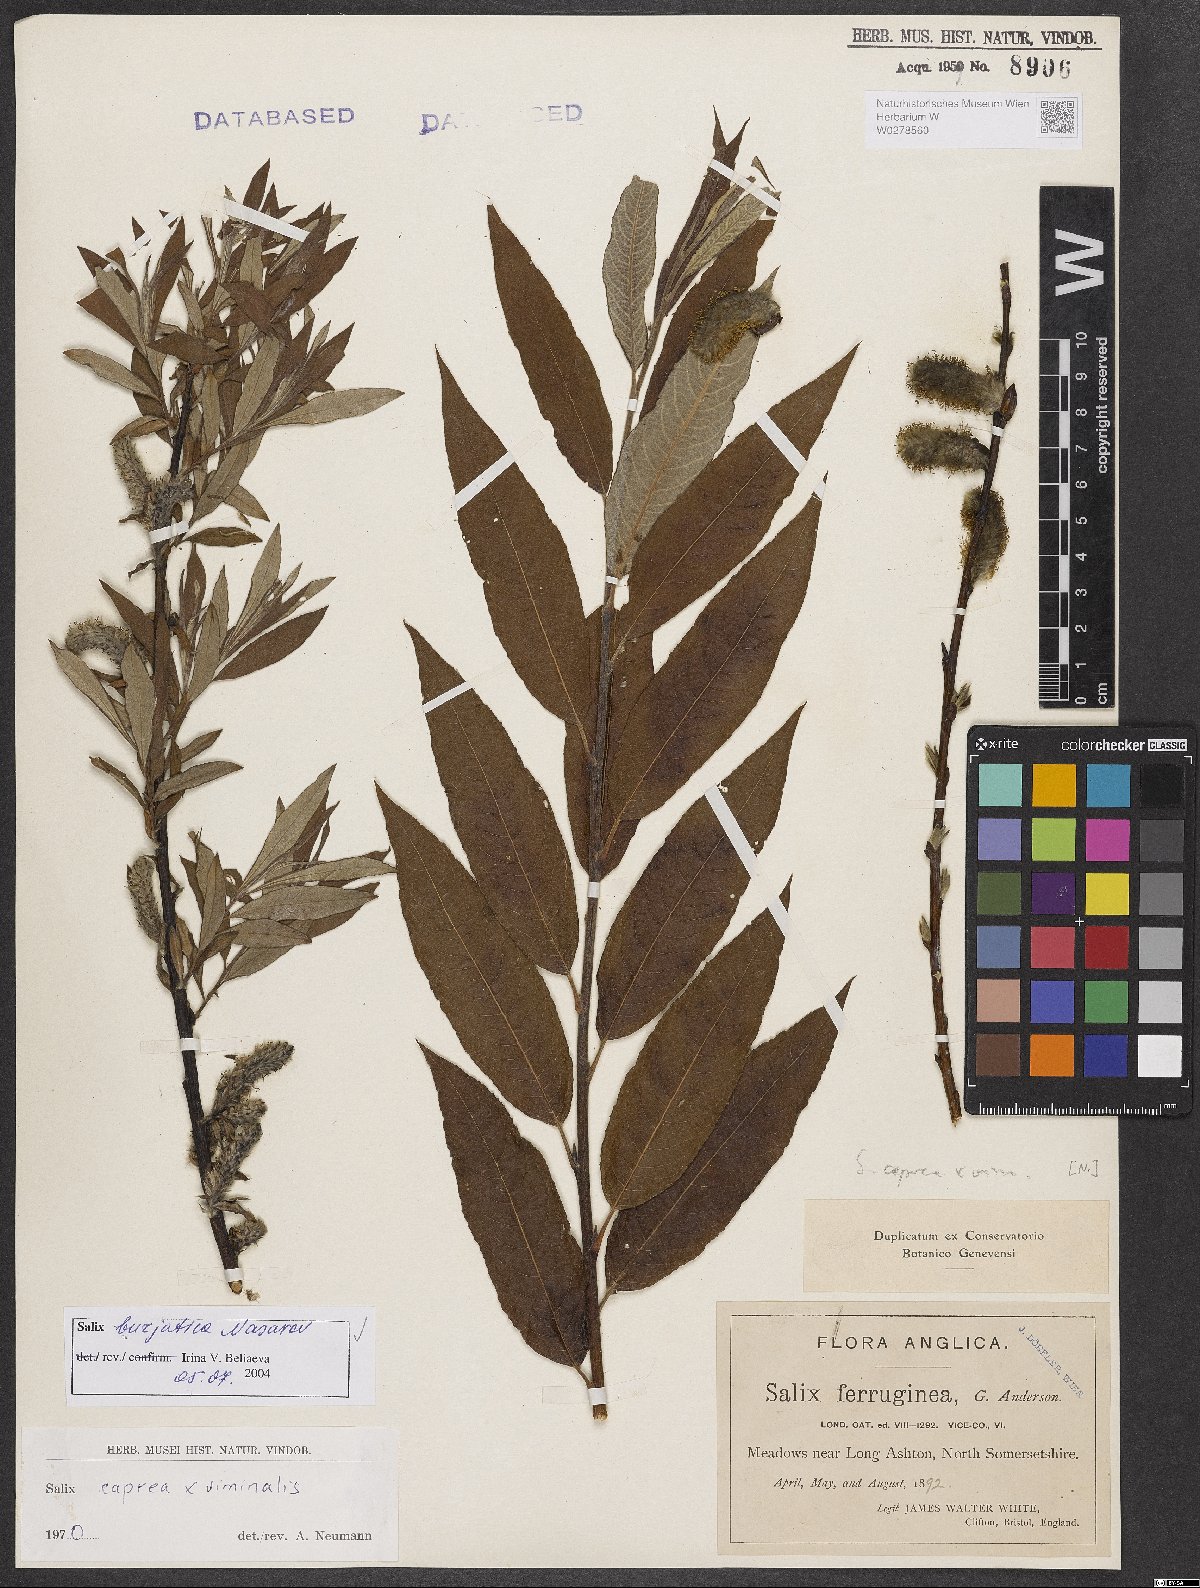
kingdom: Plantae
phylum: Tracheophyta
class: Magnoliopsida
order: Malpighiales
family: Salicaceae
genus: Salix
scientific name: Salix gmelinii
